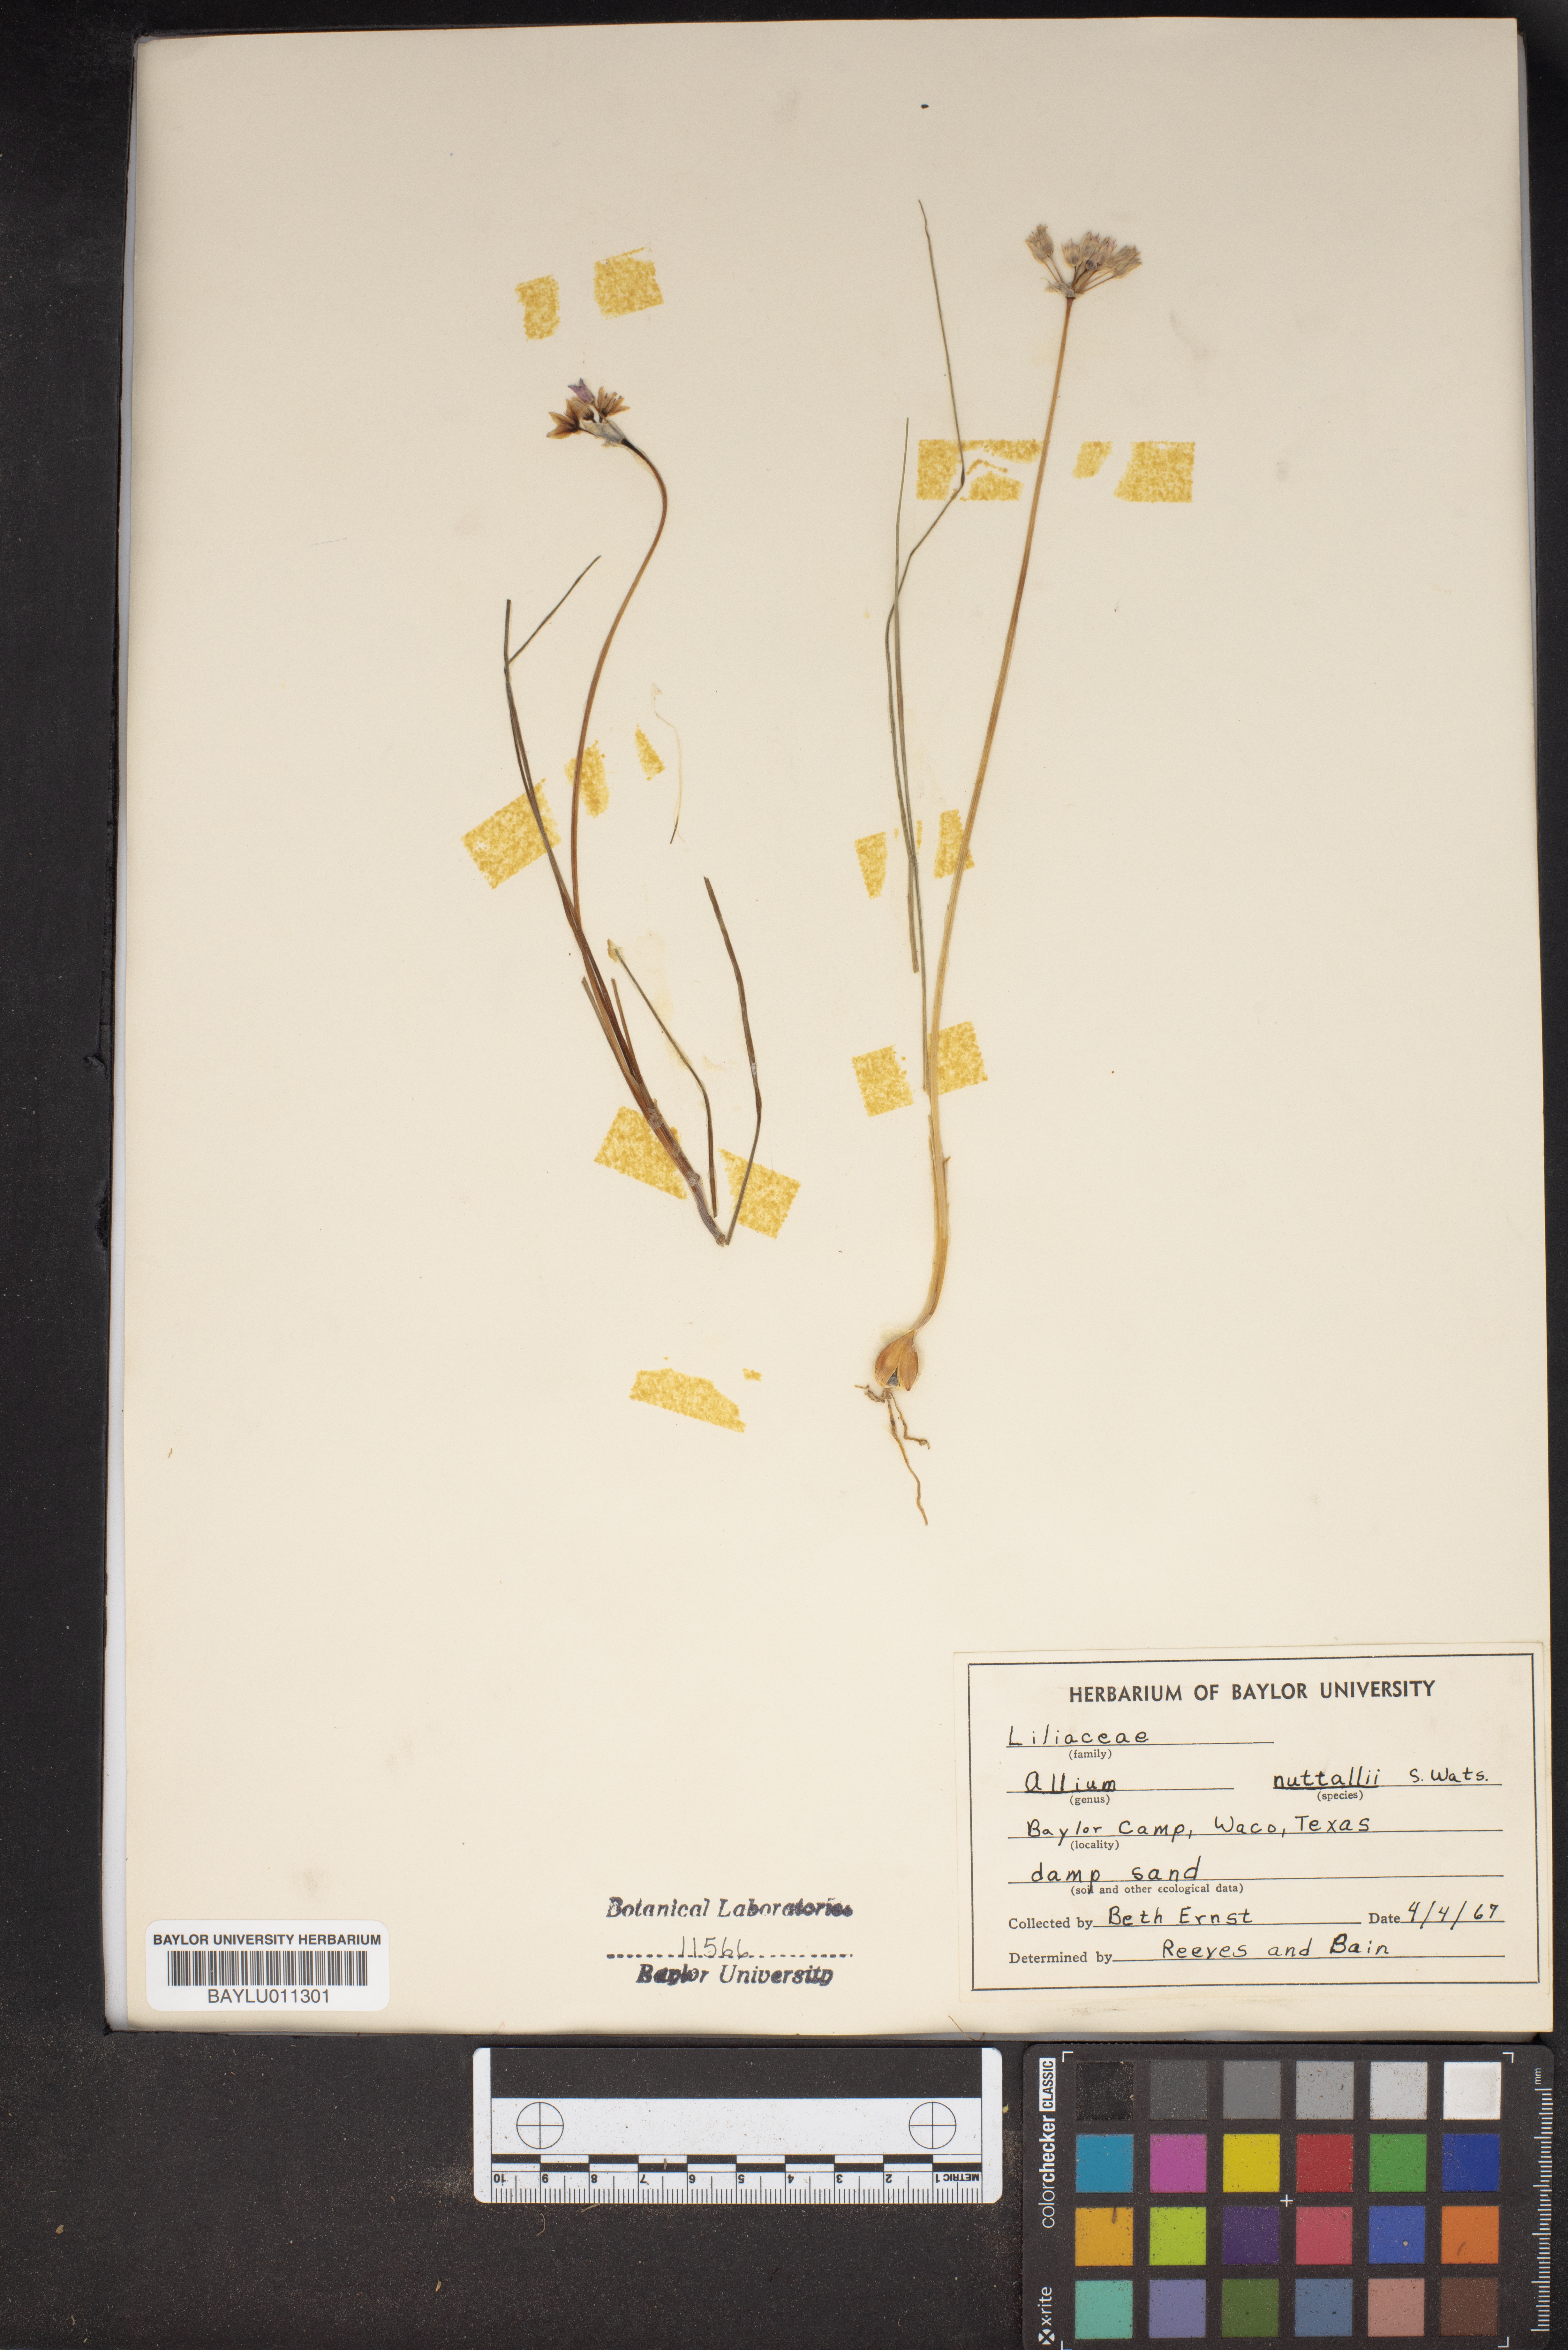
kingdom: Plantae
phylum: Tracheophyta
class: Liliopsida
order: Asparagales
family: Amaryllidaceae
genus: Allium
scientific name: Allium drummondii
